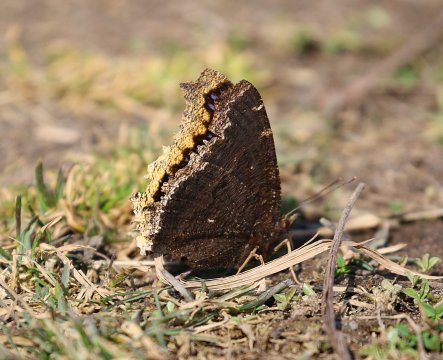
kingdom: Animalia
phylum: Arthropoda
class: Insecta
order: Lepidoptera
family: Nymphalidae
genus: Nymphalis
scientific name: Nymphalis antiopa
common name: Mourning Cloak
